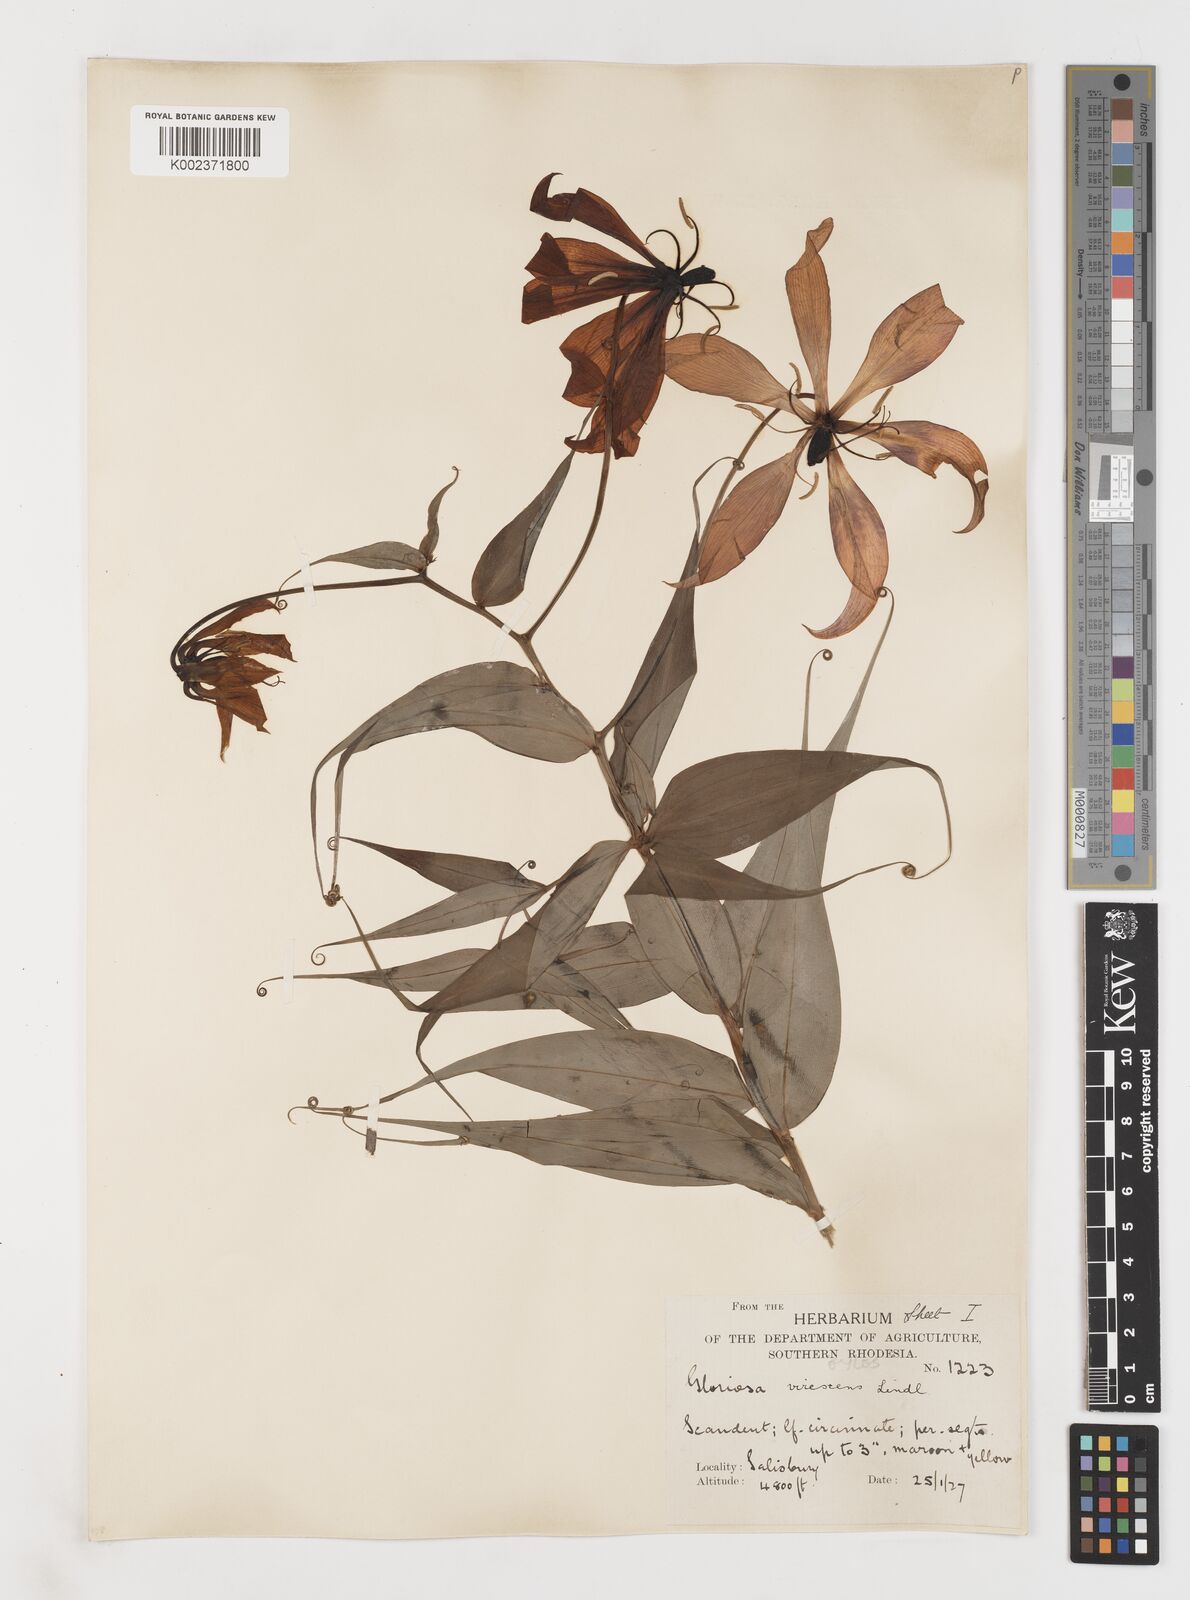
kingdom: Plantae
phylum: Tracheophyta
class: Liliopsida
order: Liliales
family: Colchicaceae
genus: Gloriosa
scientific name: Gloriosa simplex
